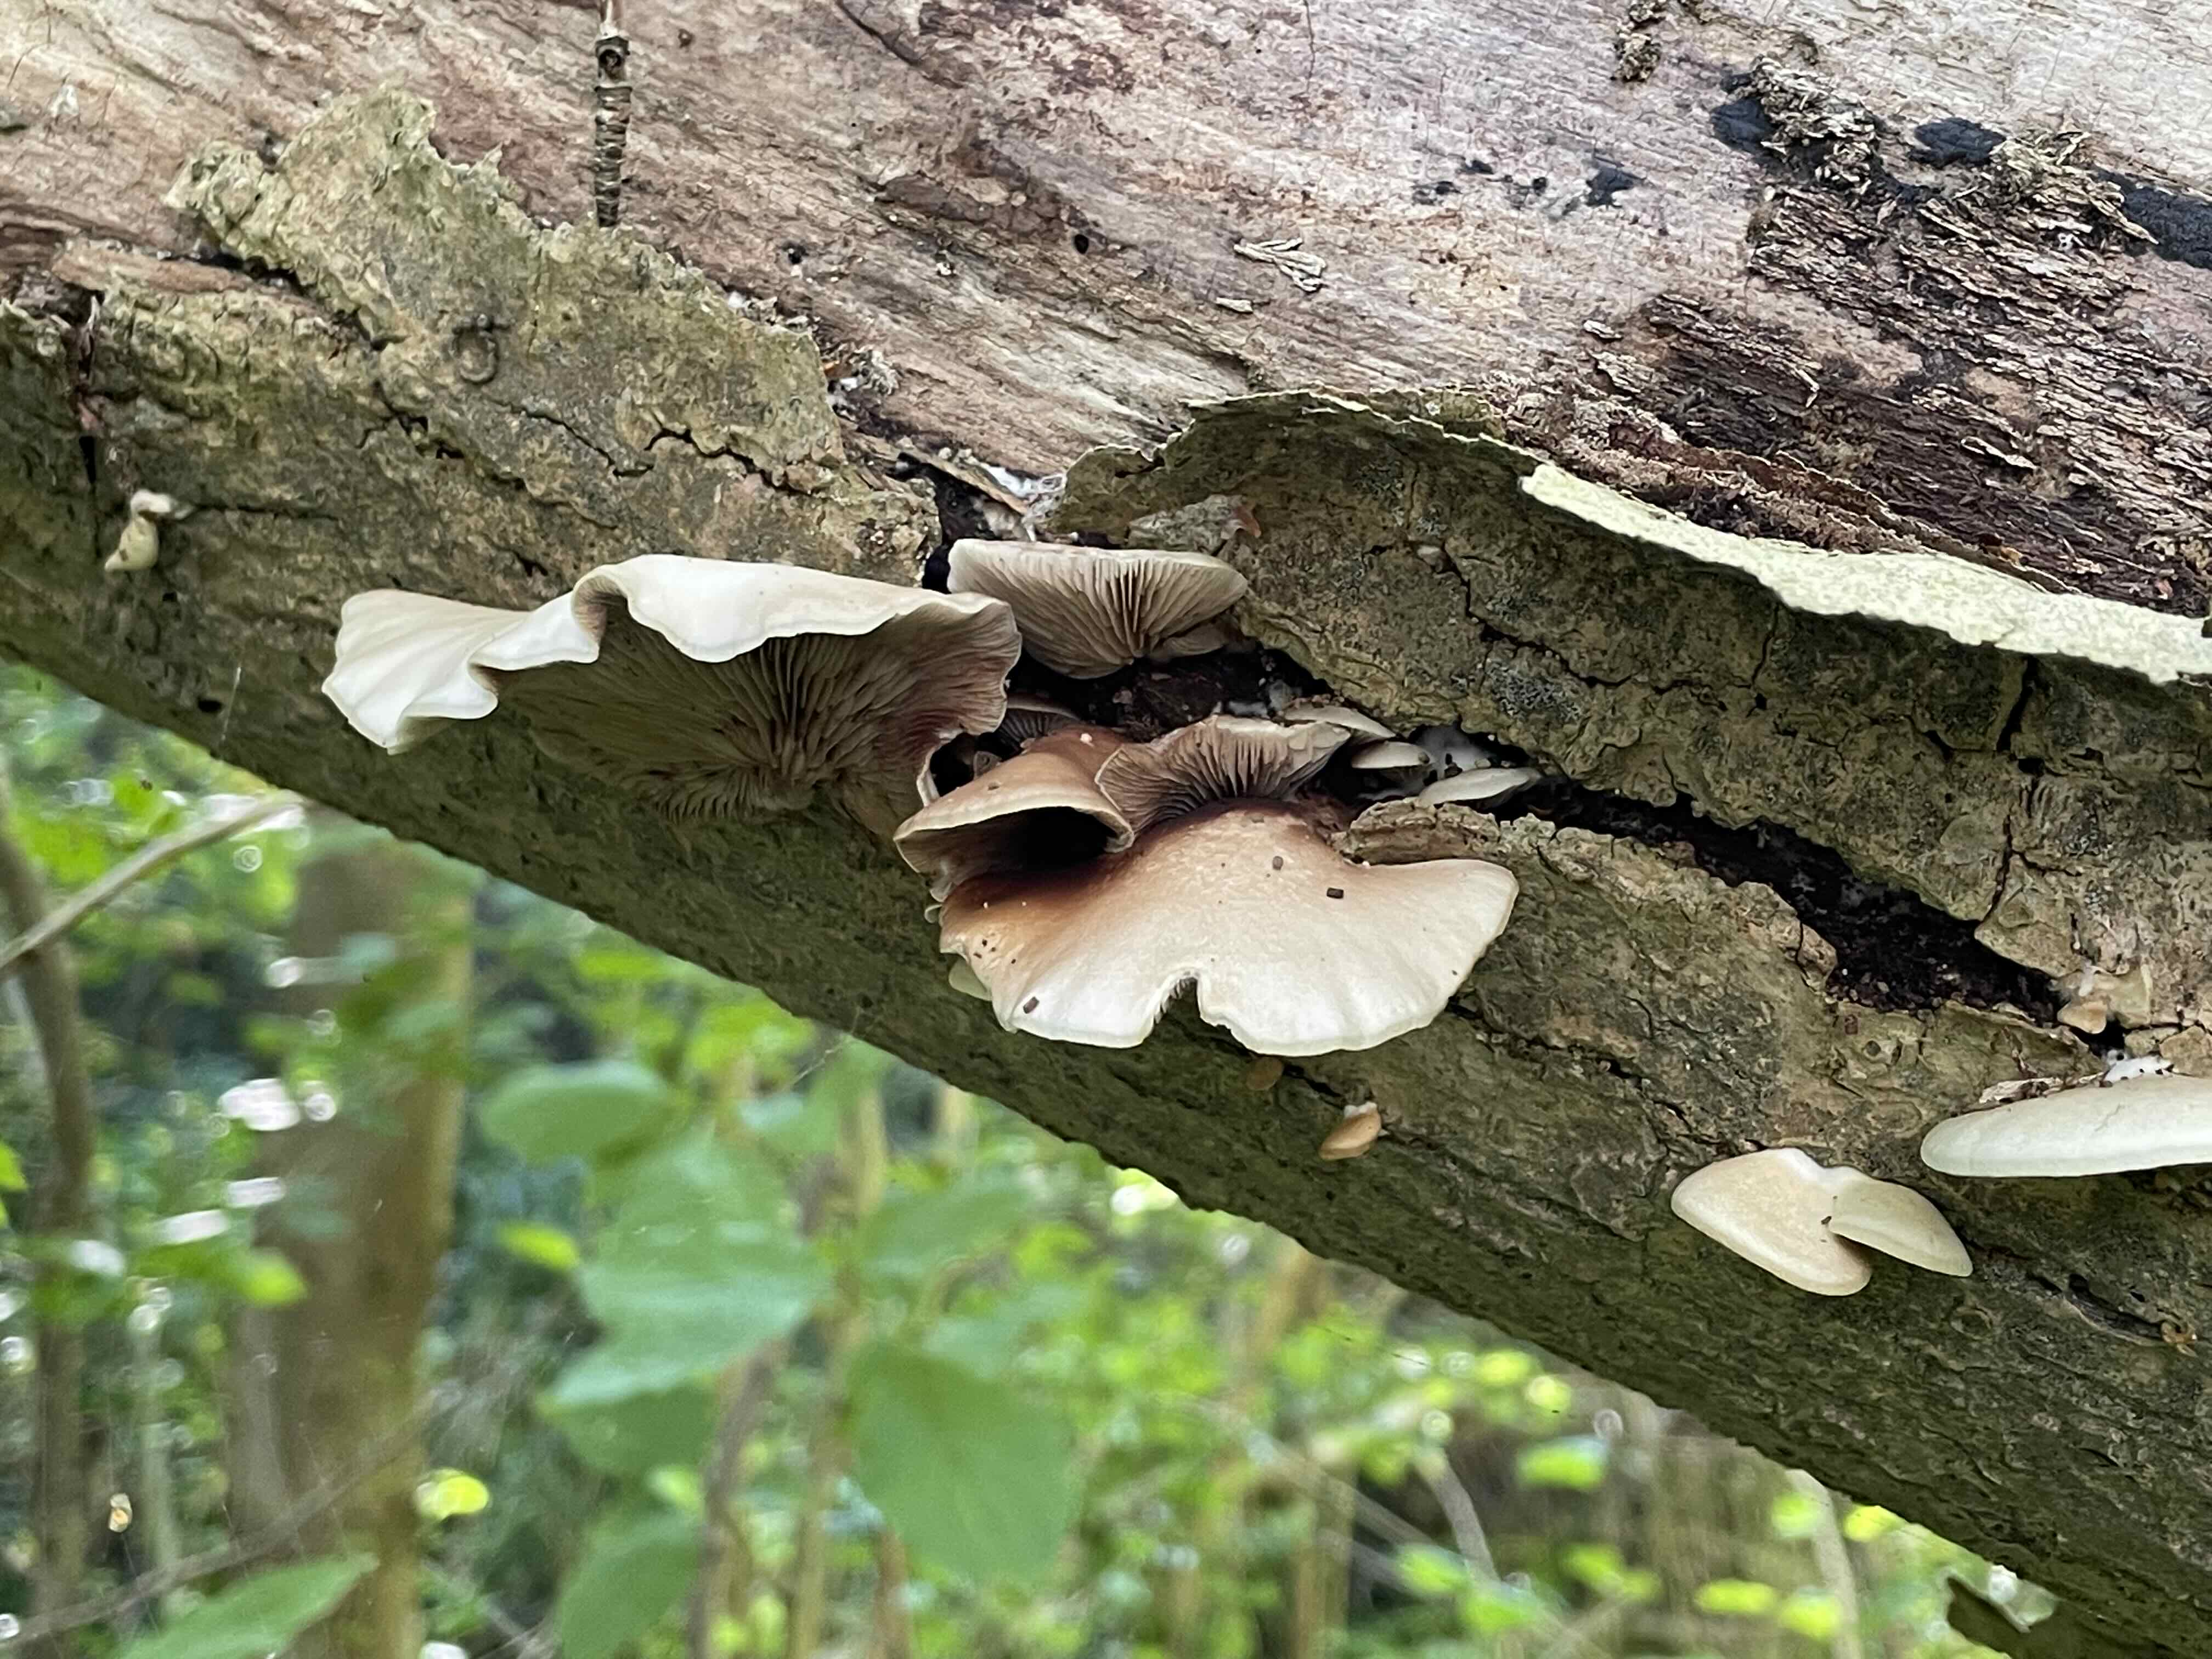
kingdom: Fungi
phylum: Basidiomycota
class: Agaricomycetes
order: Agaricales
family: Crepidotaceae
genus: Crepidotus
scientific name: Crepidotus mollis
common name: blød muslingesvamp
